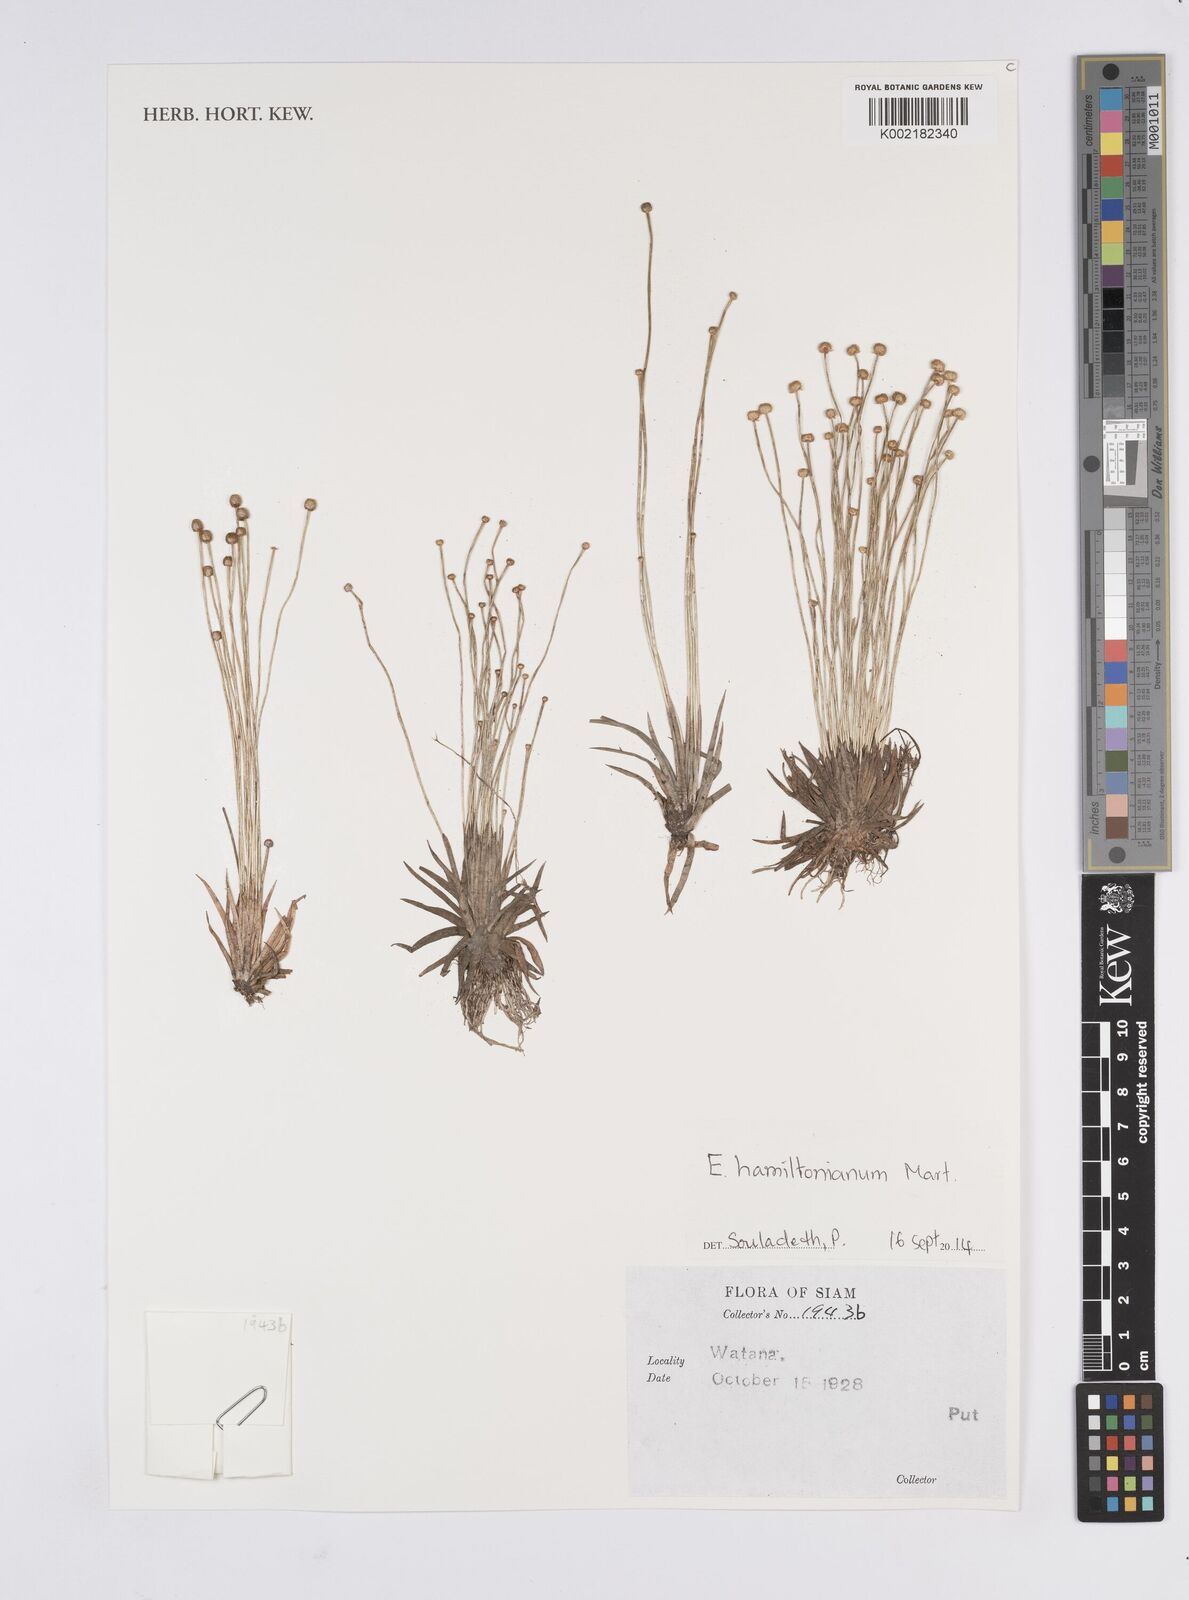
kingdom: Plantae
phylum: Tracheophyta
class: Liliopsida
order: Poales
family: Eriocaulaceae
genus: Eriocaulon
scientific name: Eriocaulon hamiltonianum
